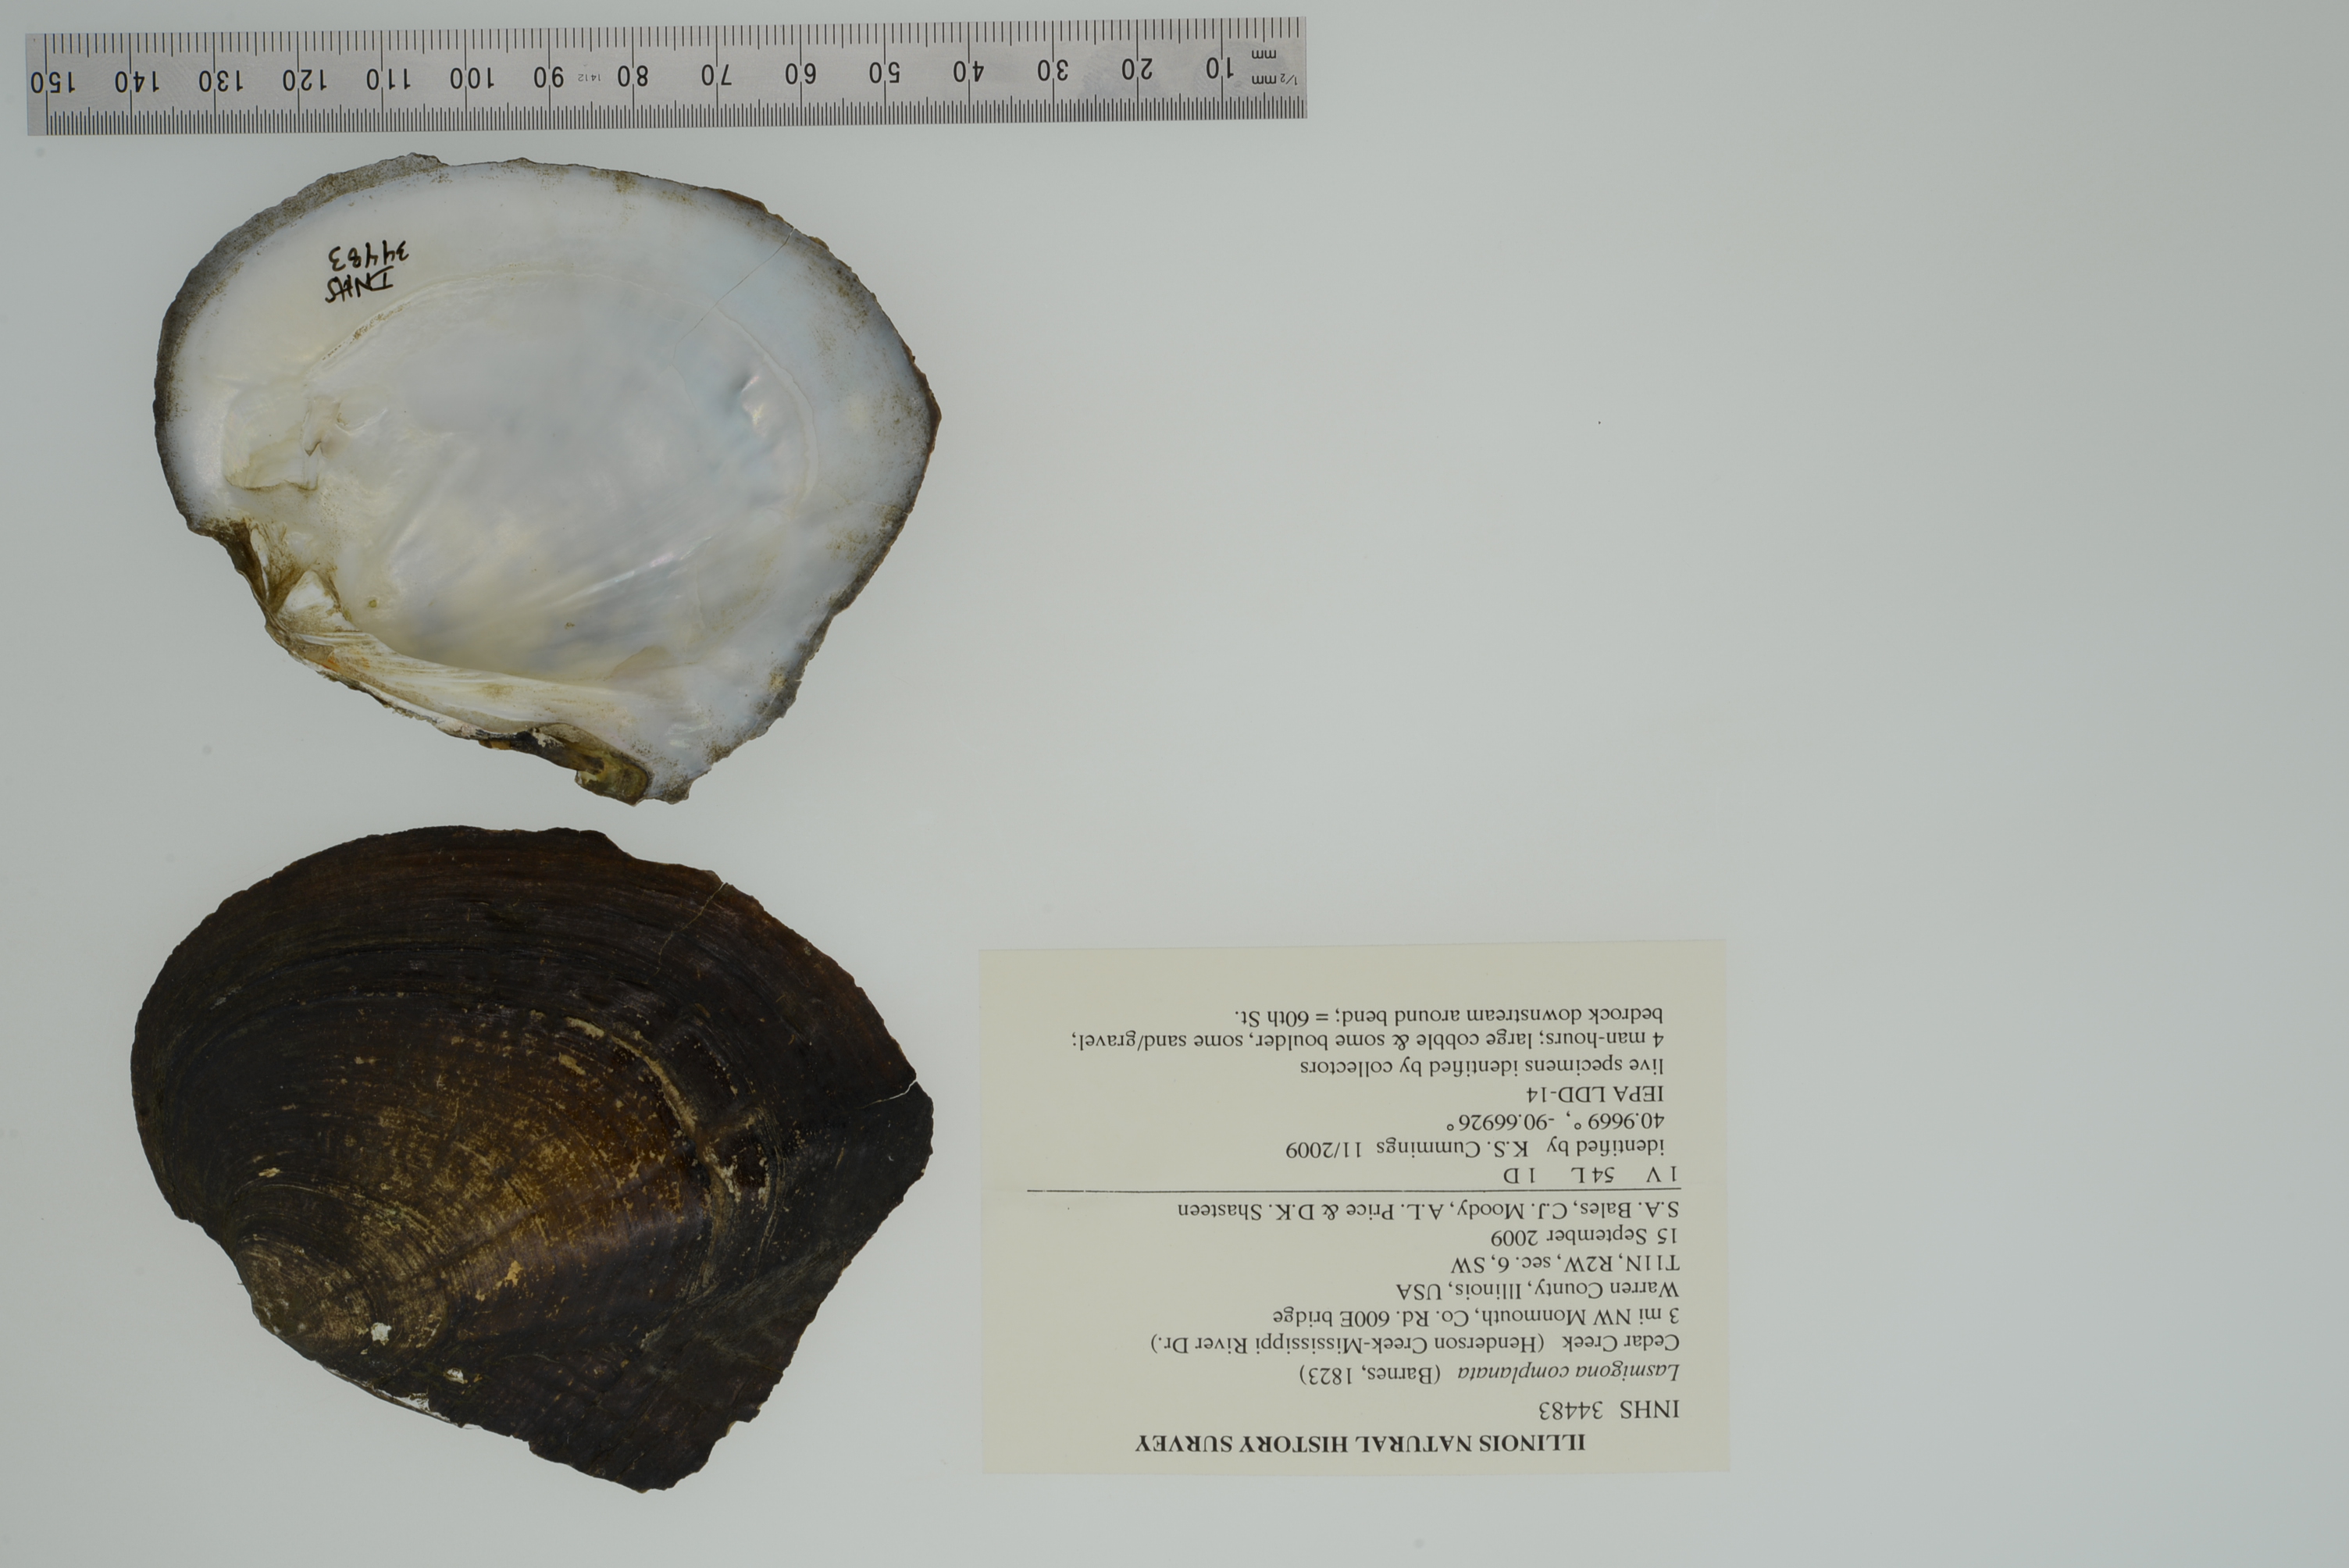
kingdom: Animalia
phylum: Mollusca
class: Bivalvia
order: Unionida
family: Unionidae
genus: Lasmigona
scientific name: Lasmigona complanata
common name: White heelsplitter
